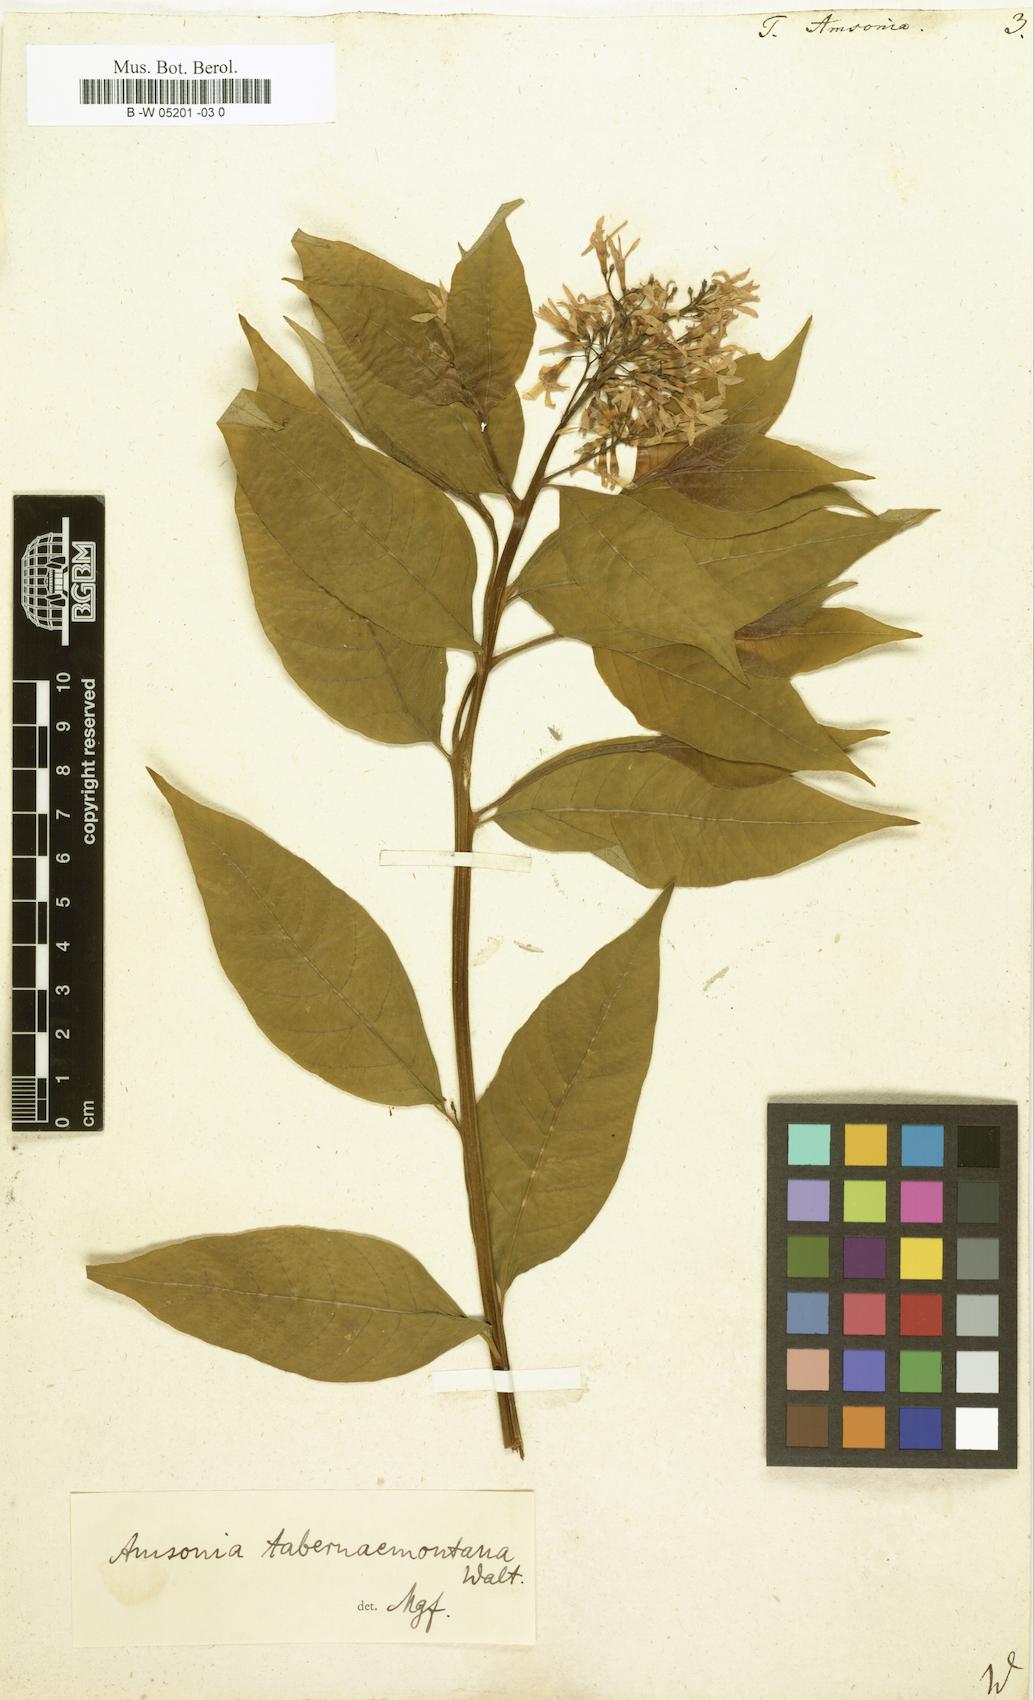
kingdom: Plantae
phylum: Tracheophyta
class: Magnoliopsida
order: Gentianales
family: Apocynaceae
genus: Amsonia
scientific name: Amsonia tabernaemontana
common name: Texas-star
